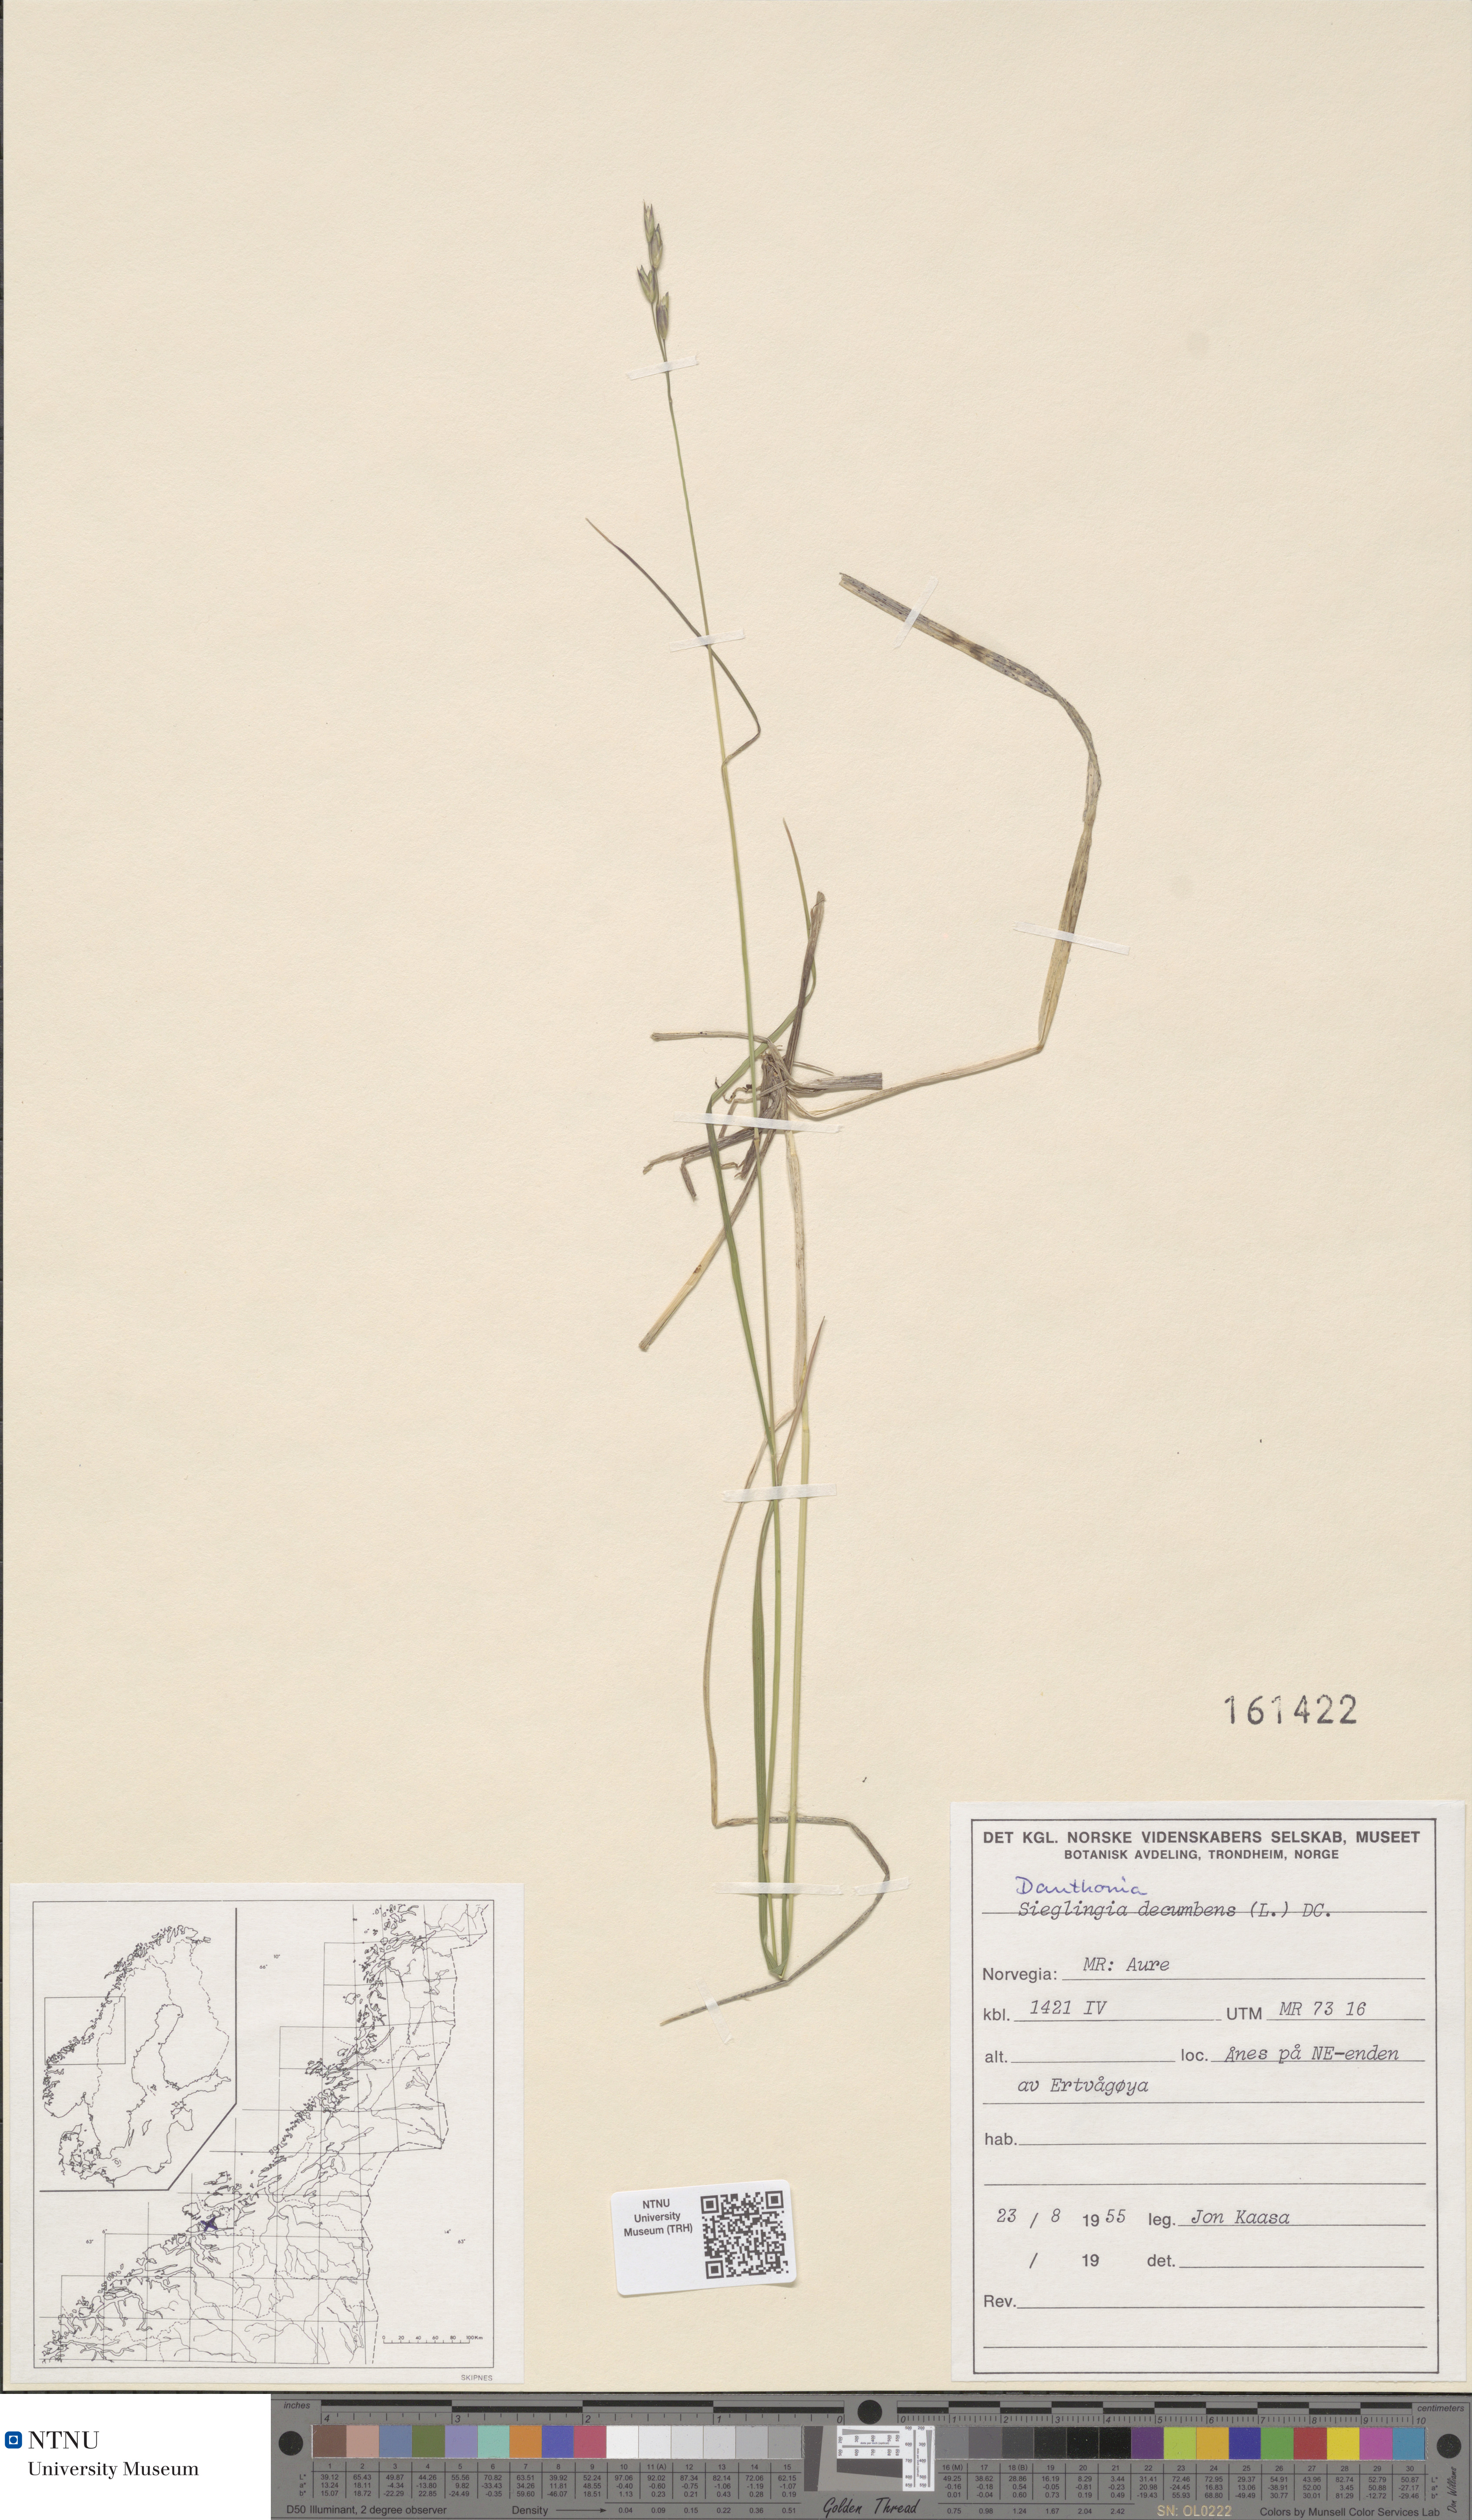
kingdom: Plantae
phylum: Tracheophyta
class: Liliopsida
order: Poales
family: Poaceae
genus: Danthonia
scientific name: Danthonia decumbens
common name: Common heathgrass
